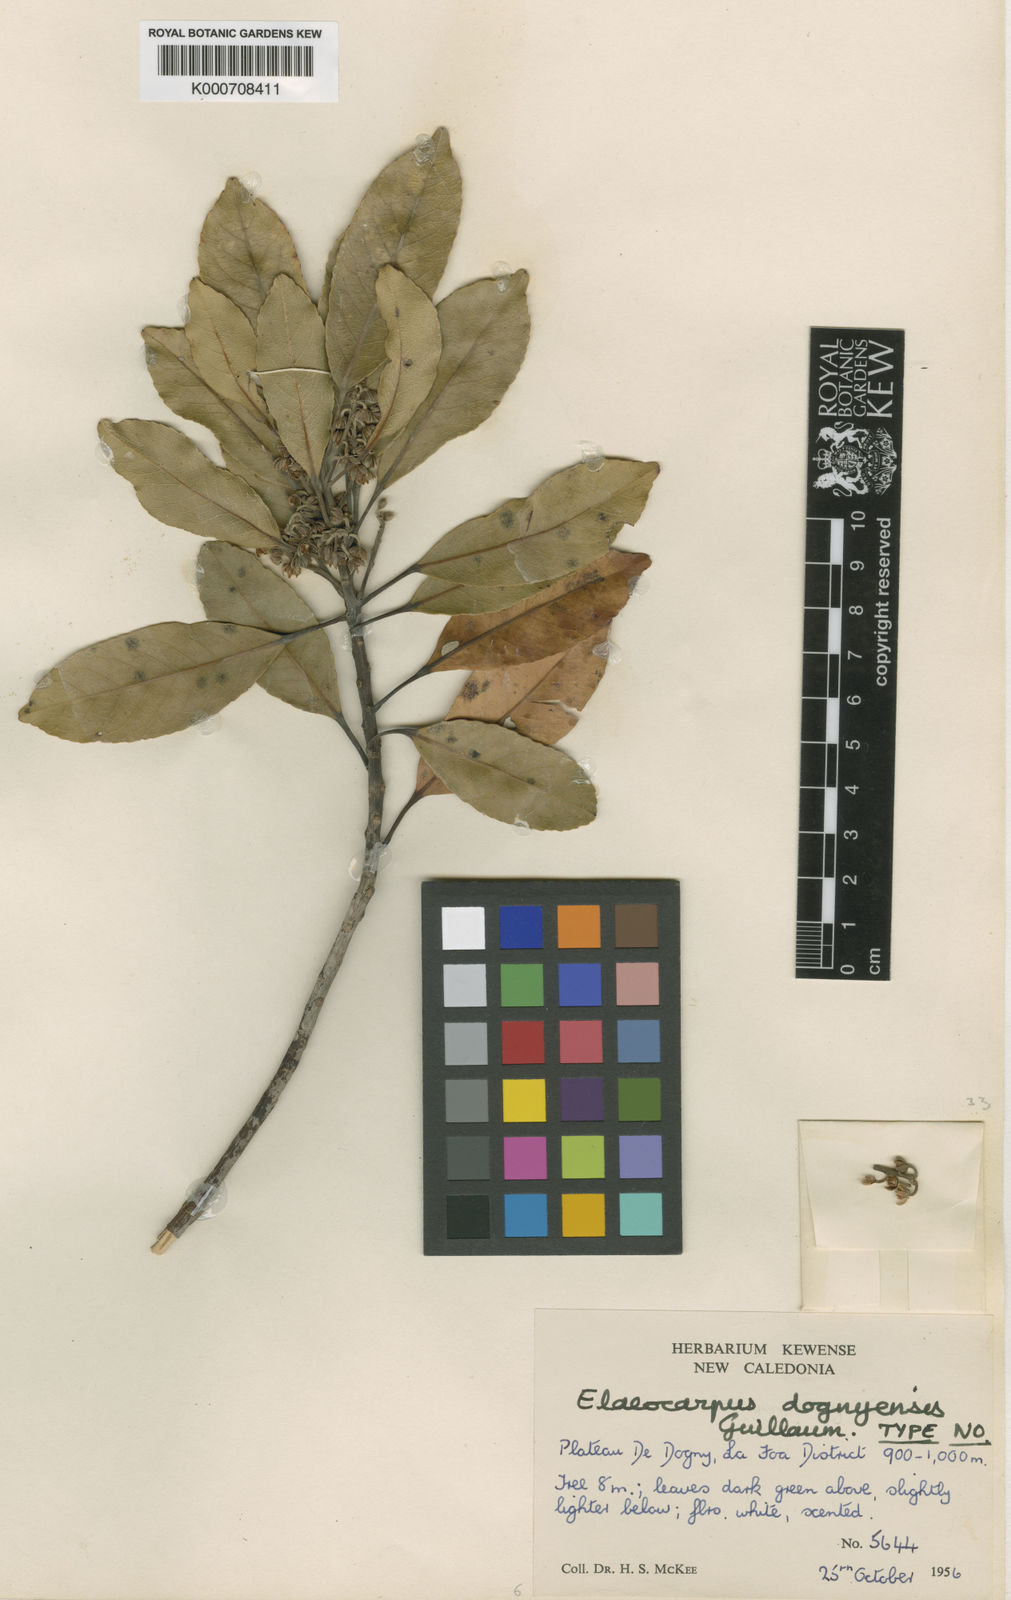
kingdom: Plantae
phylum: Tracheophyta
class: Magnoliopsida
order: Oxalidales
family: Elaeocarpaceae
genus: Elaeocarpus
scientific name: Elaeocarpus dognyensis
